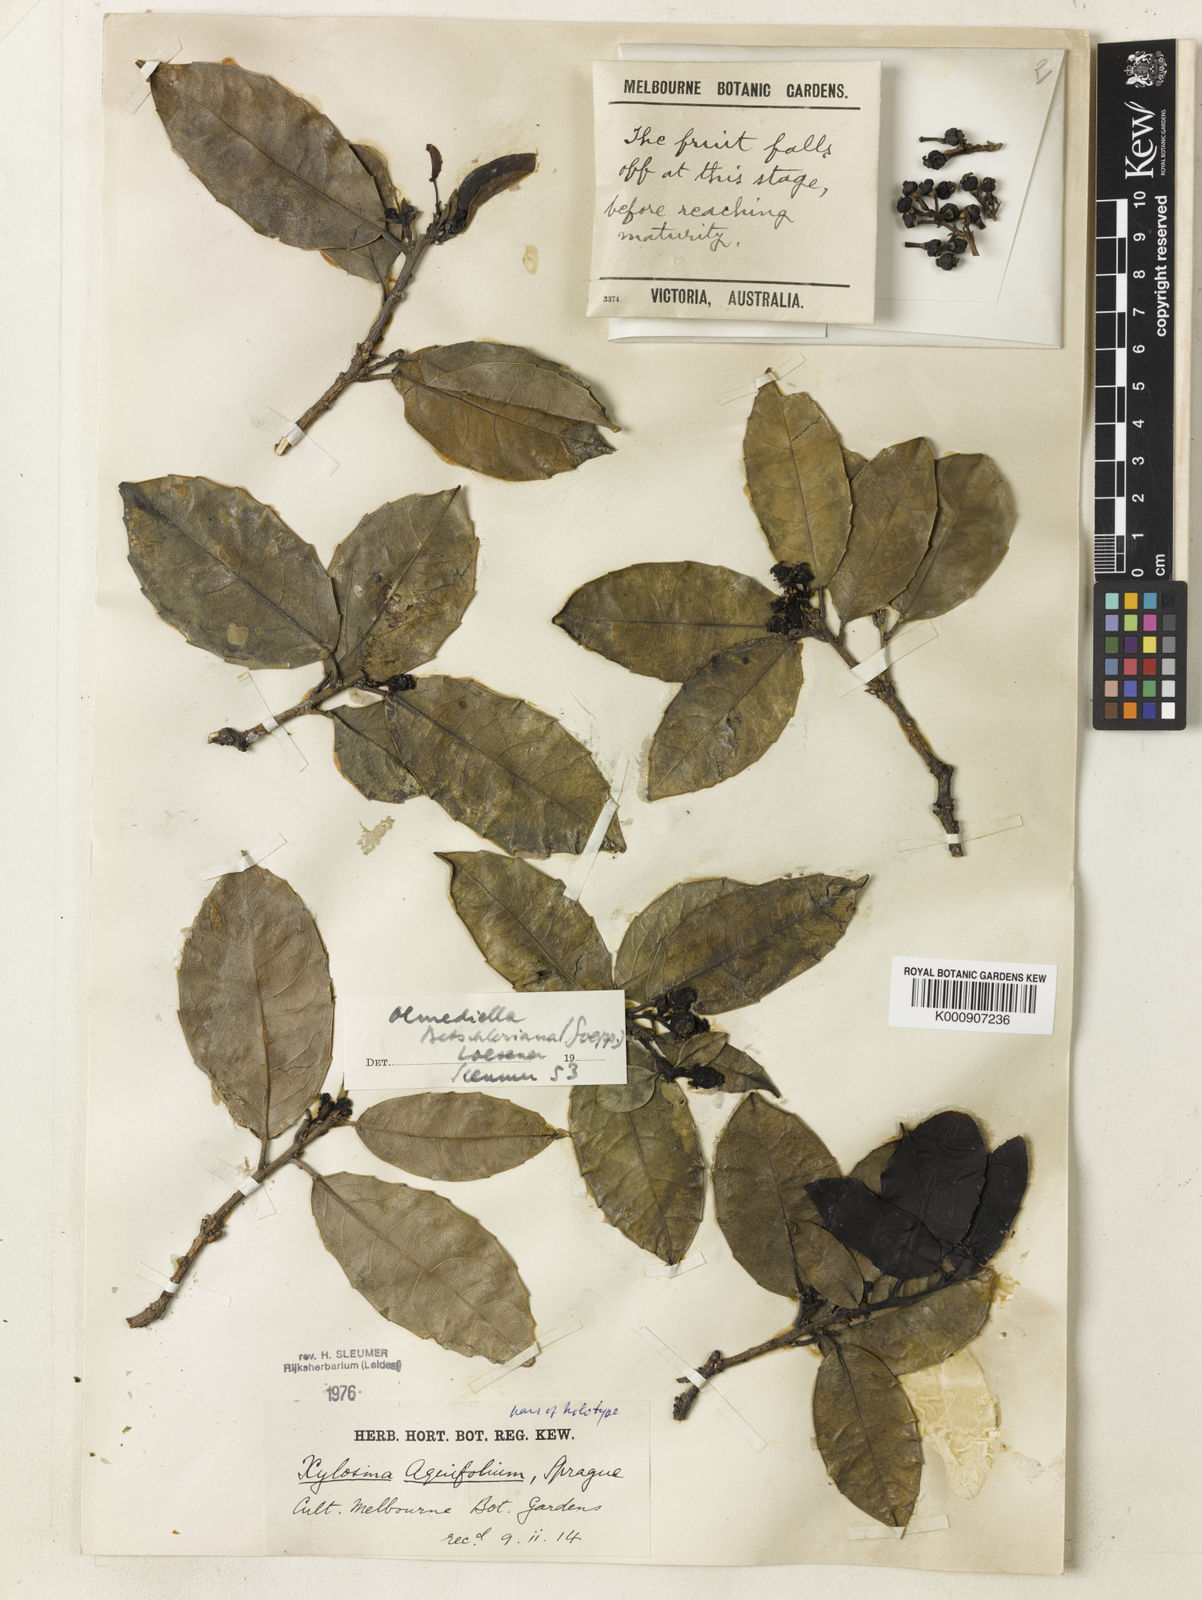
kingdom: Plantae
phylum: Tracheophyta
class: Magnoliopsida
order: Malpighiales
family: Salicaceae
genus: Olmediella
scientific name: Olmediella
